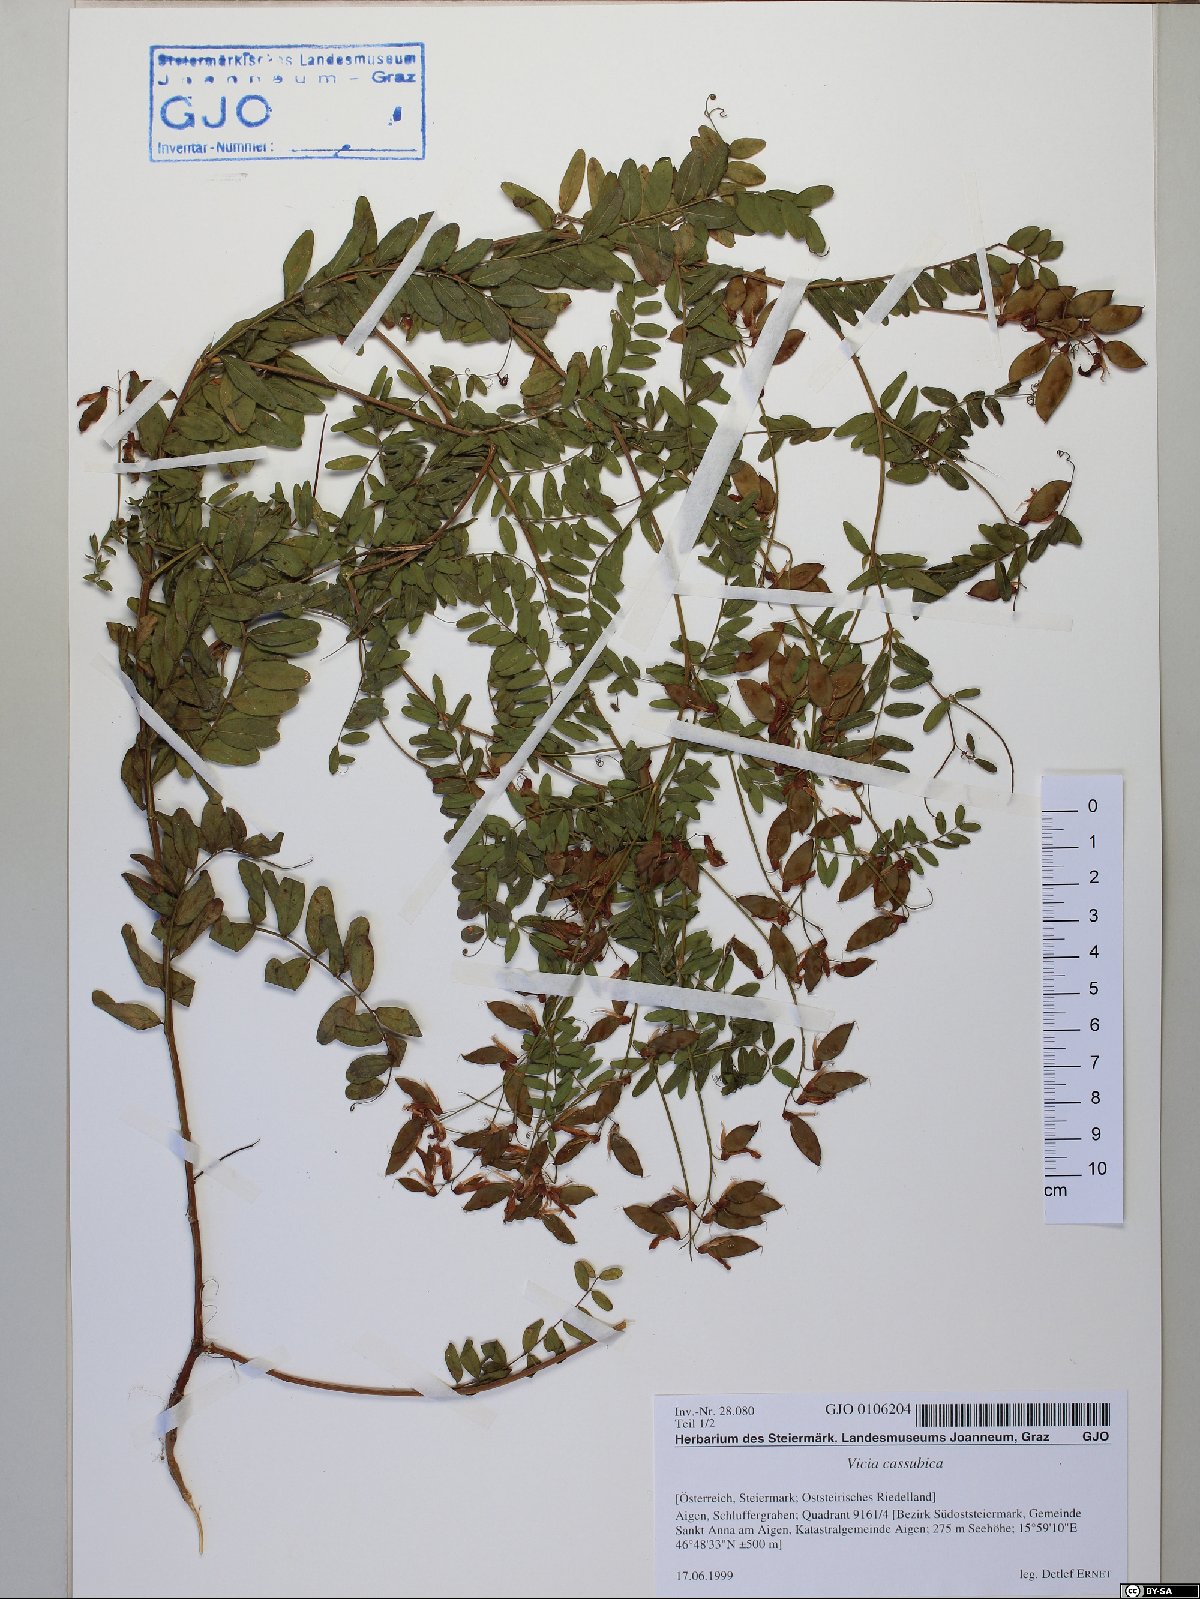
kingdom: Plantae
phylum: Tracheophyta
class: Magnoliopsida
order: Fabales
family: Fabaceae
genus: Vicia
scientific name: Vicia cassubica
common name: Danzig vetch
